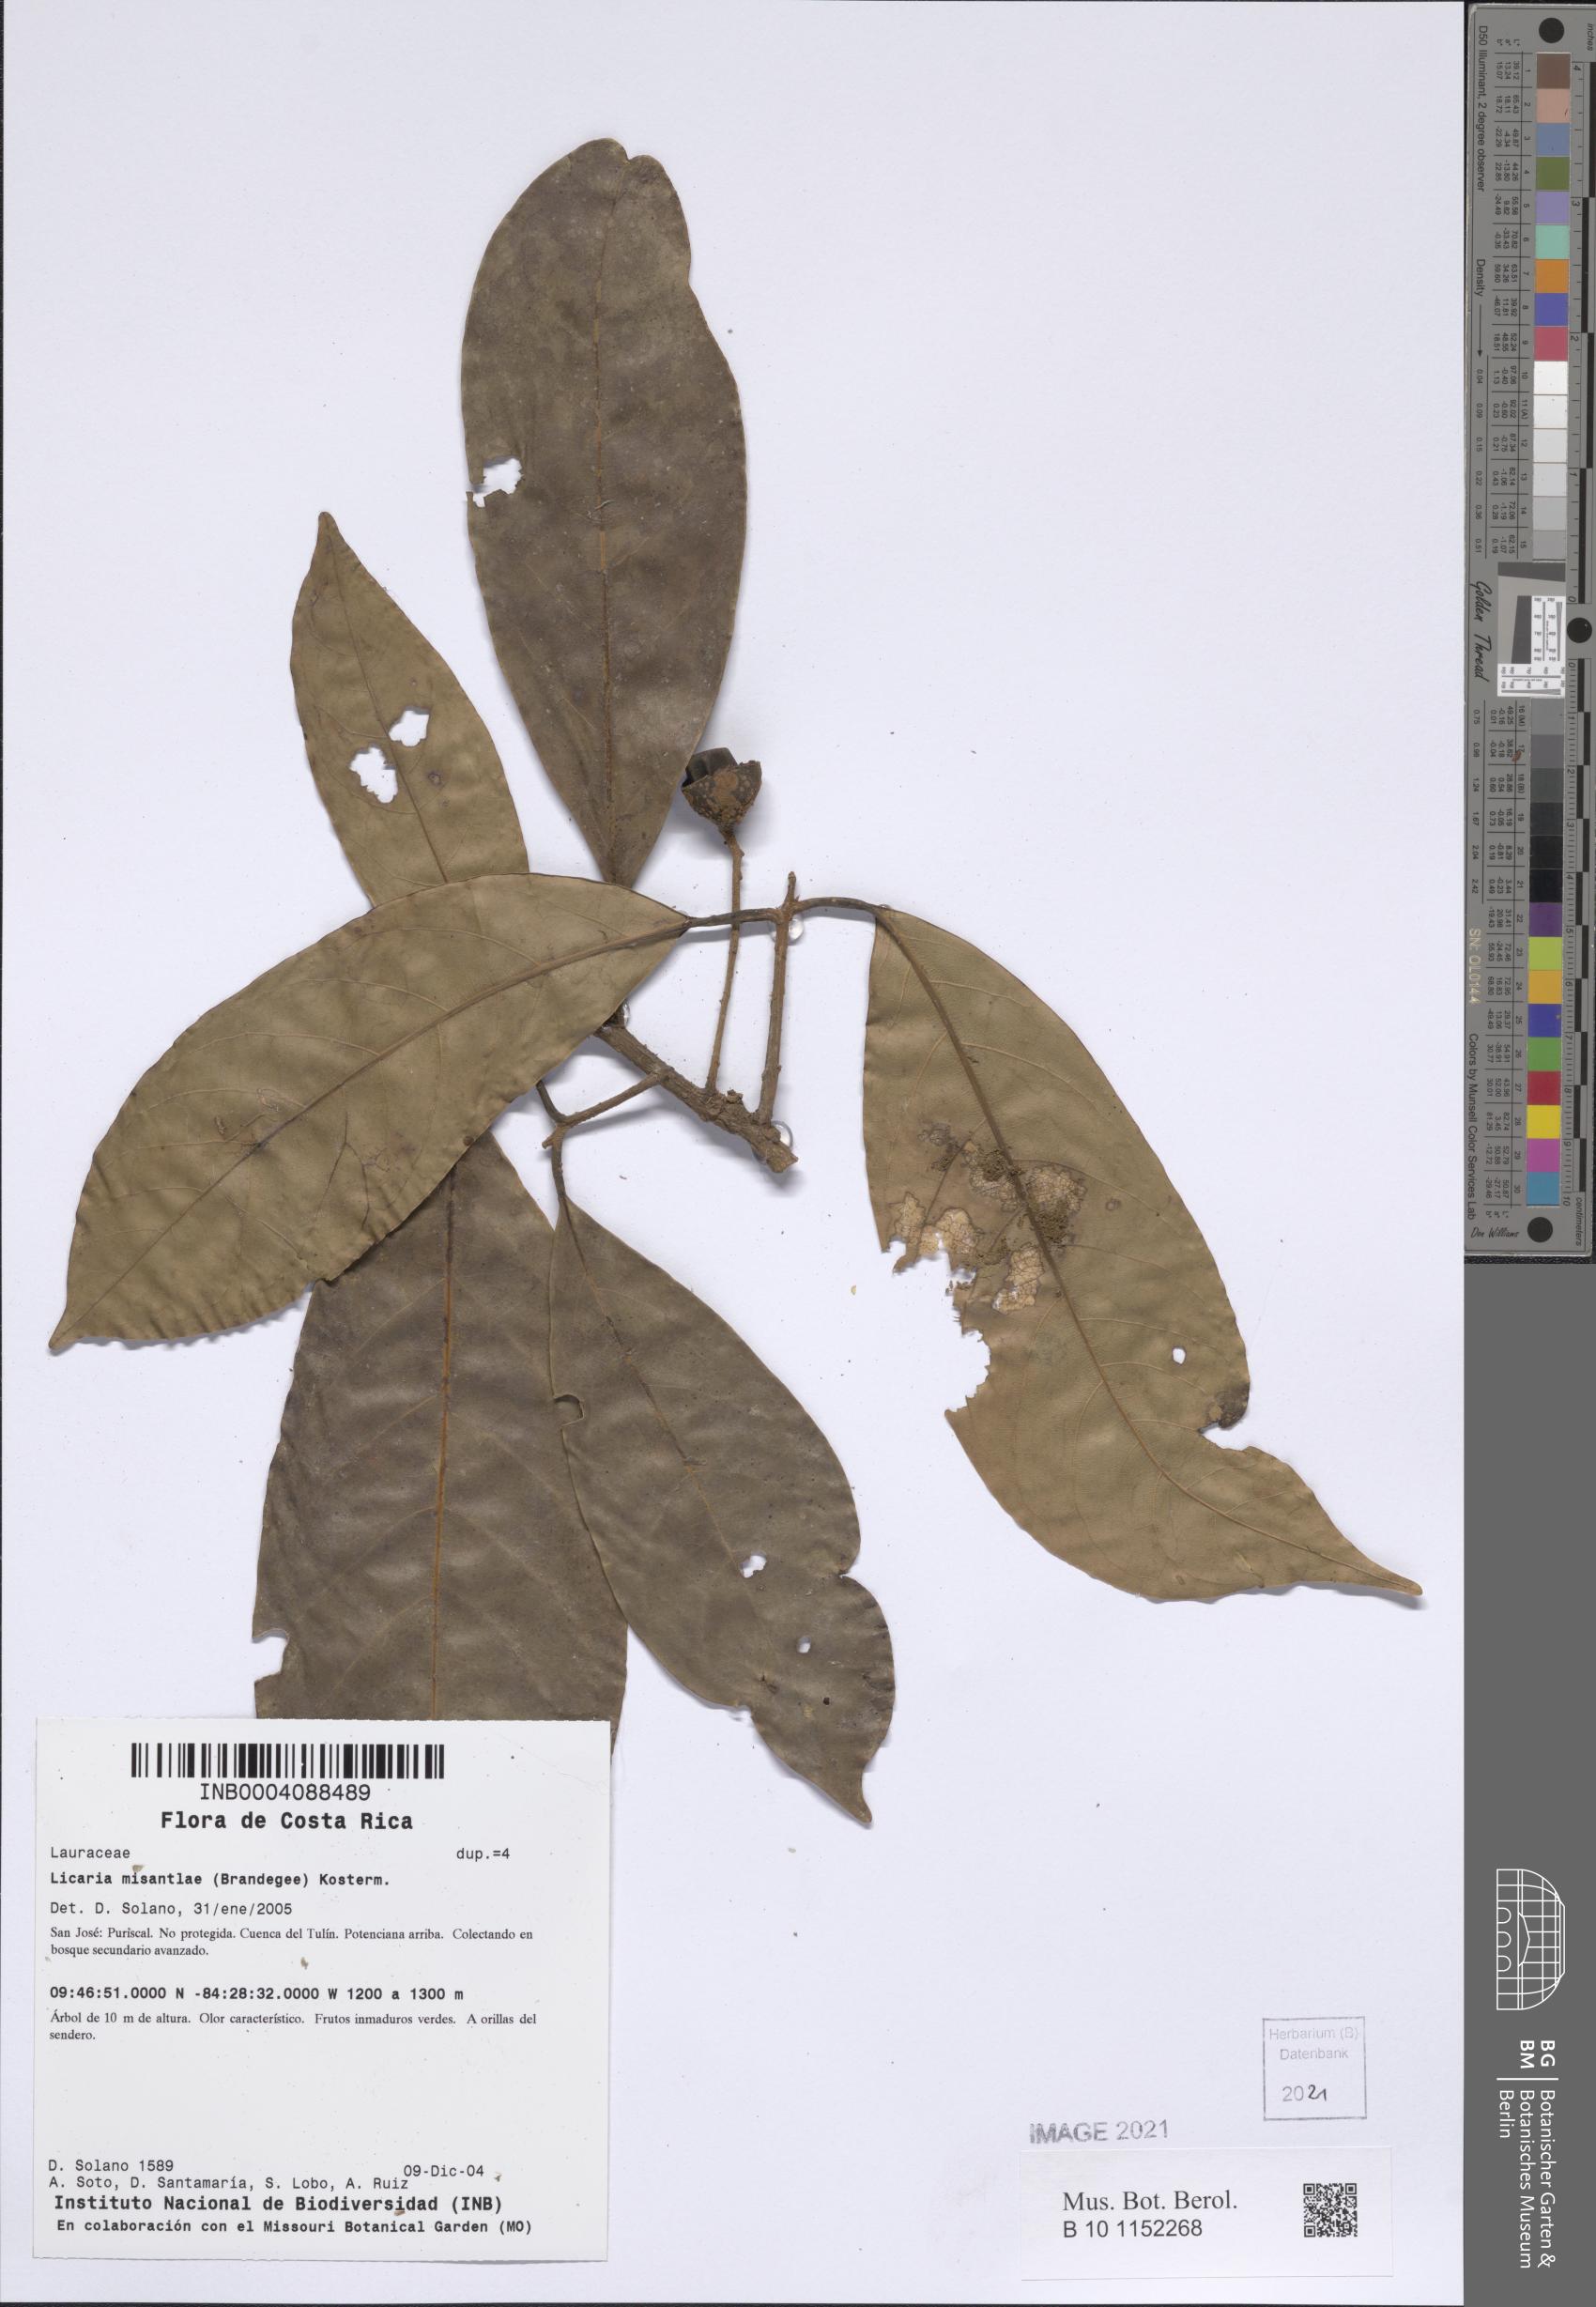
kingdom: Plantae
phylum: Tracheophyta
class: Magnoliopsida
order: Laurales
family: Lauraceae
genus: Aniba
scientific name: Aniba venezuelana
